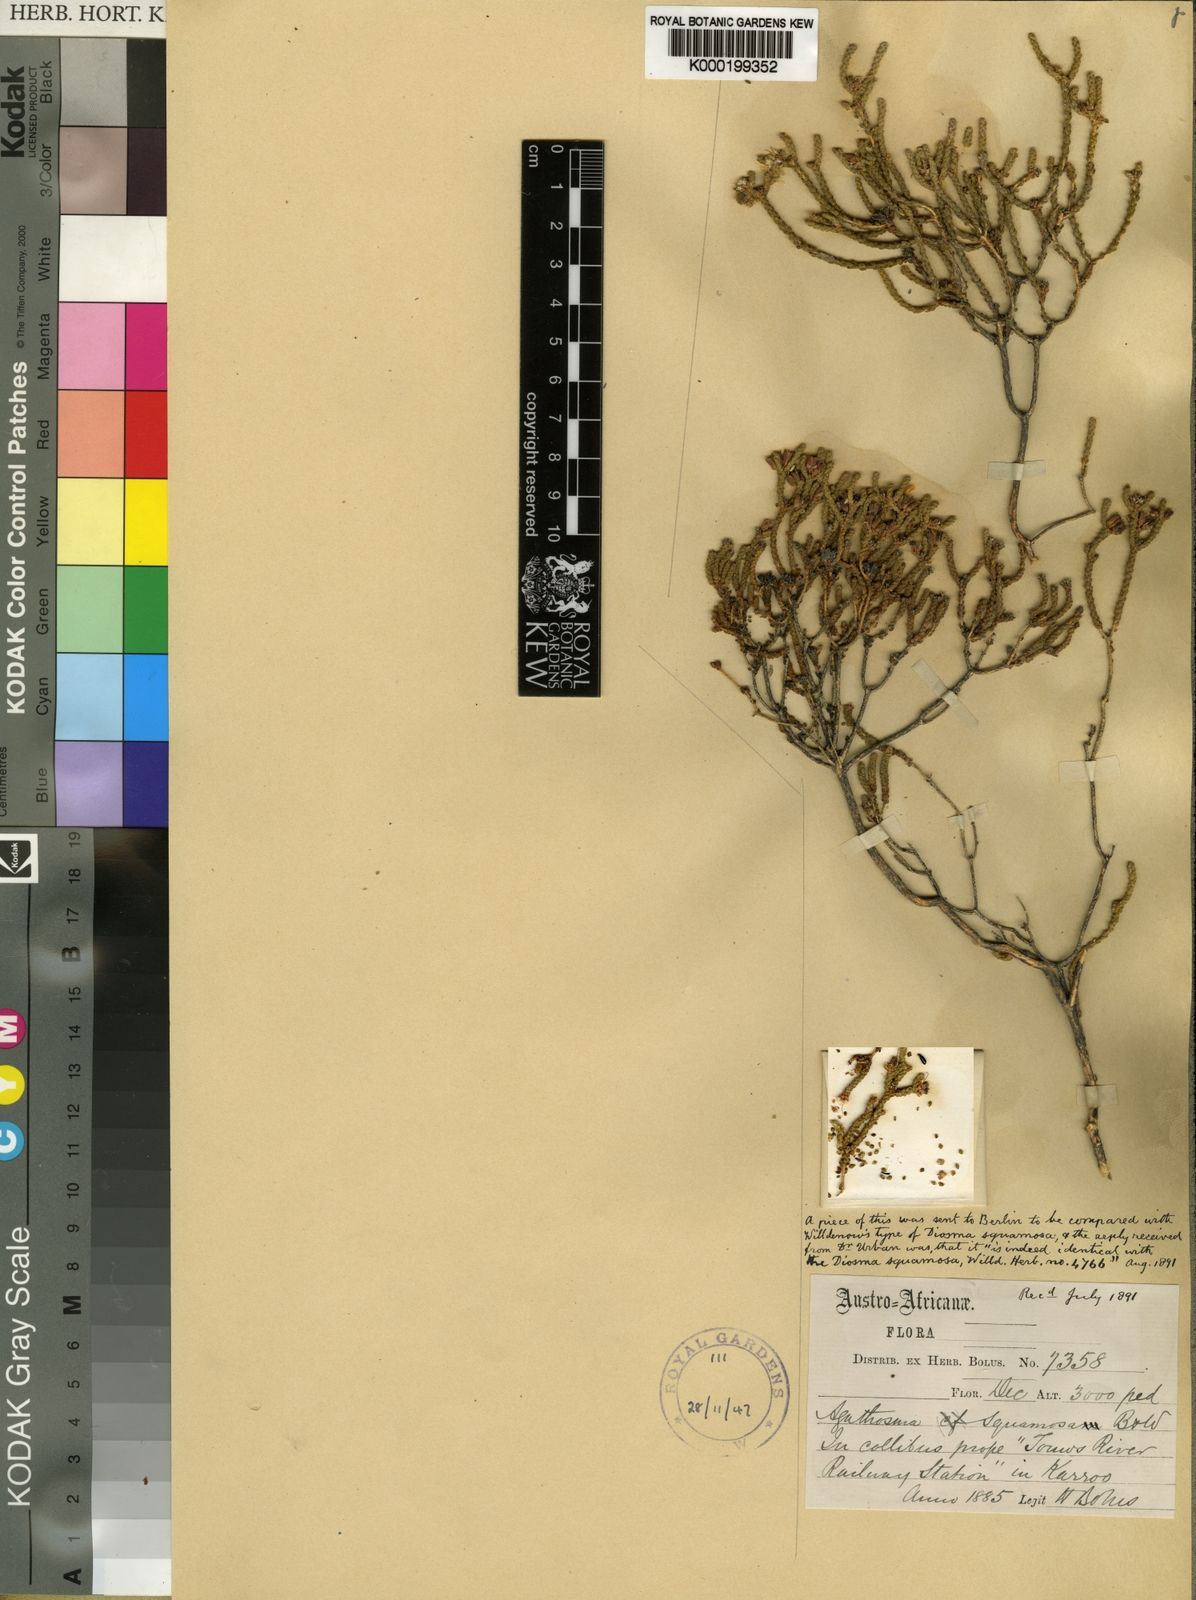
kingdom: Plantae
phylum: Tracheophyta
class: Magnoliopsida
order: Sapindales
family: Rutaceae
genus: Agathosma
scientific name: Agathosma squamosa
